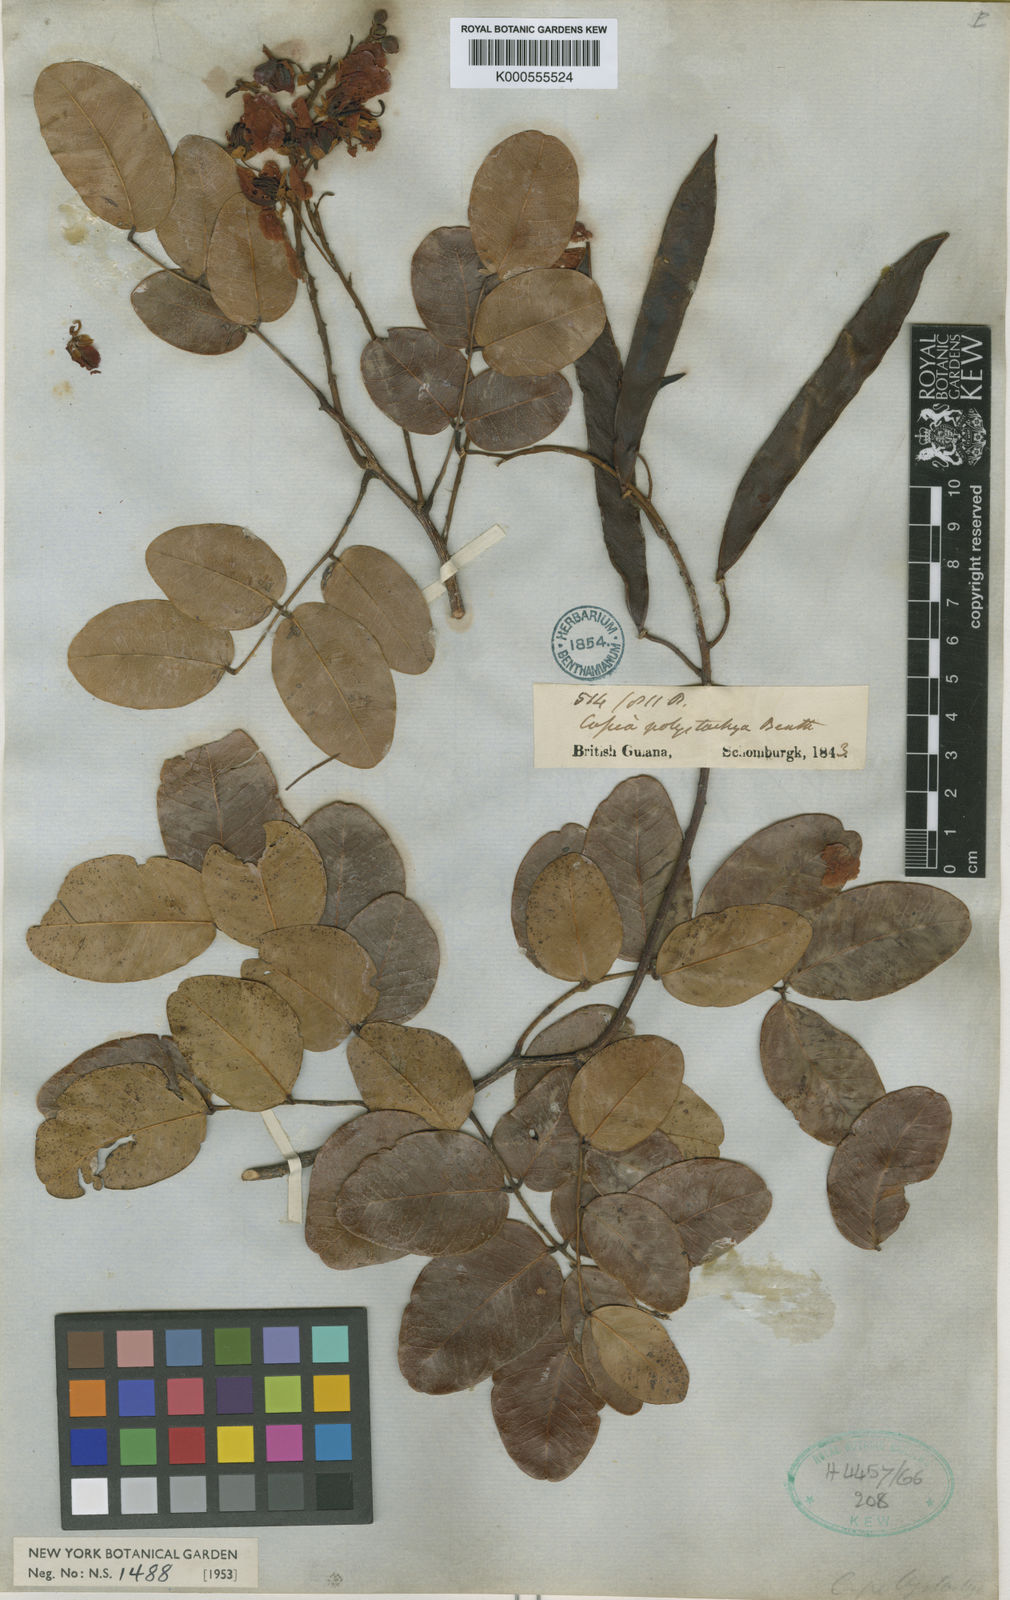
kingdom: Plantae
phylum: Tracheophyta
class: Magnoliopsida
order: Fabales
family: Fabaceae
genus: Chamaecrista
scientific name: Chamaecrista polystachya
